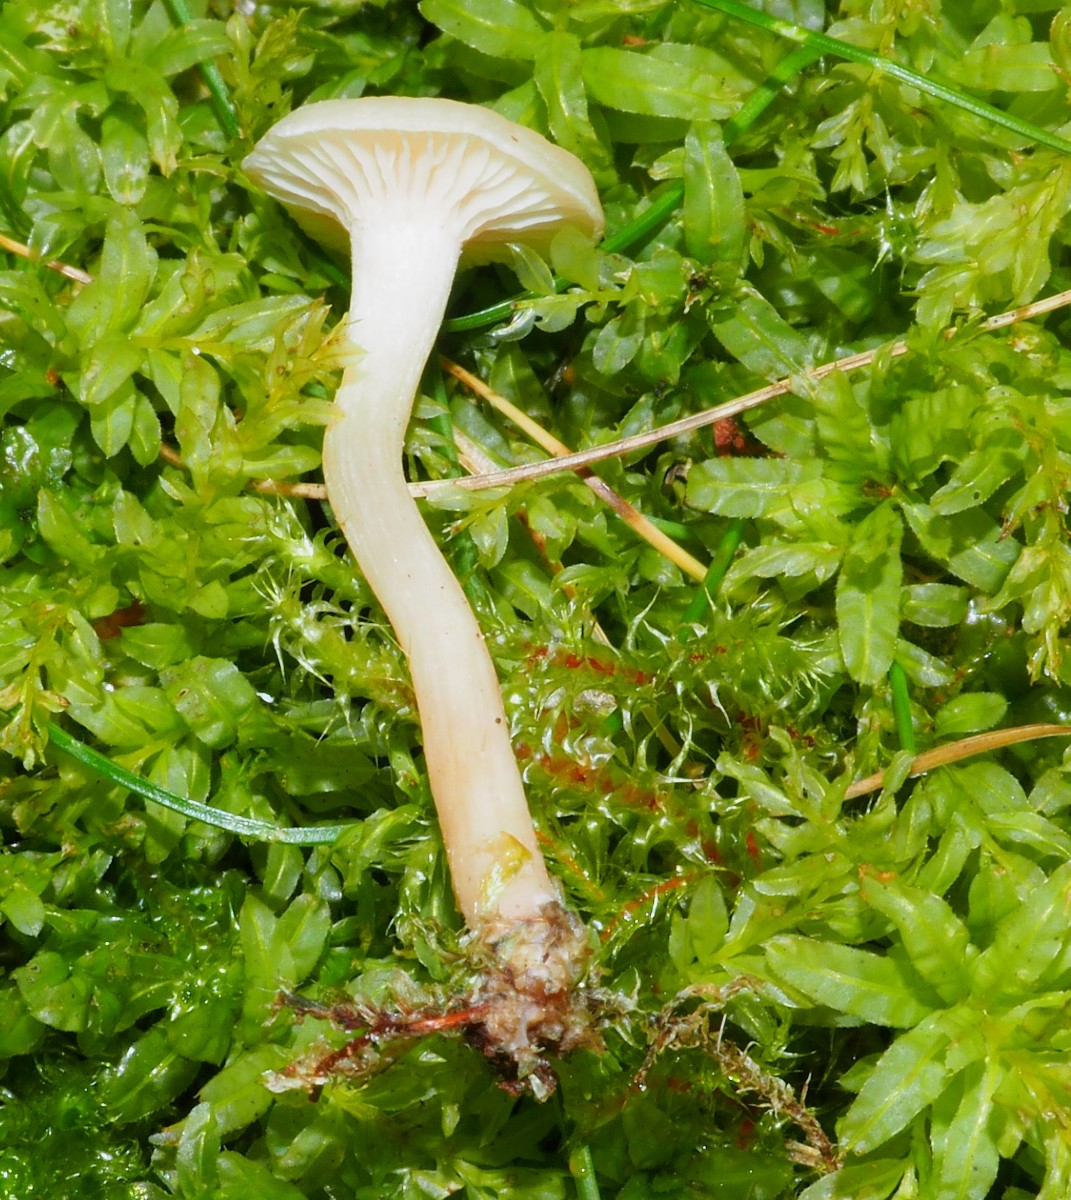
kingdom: Fungi
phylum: Basidiomycota
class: Agaricomycetes
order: Agaricales
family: Hygrophoraceae
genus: Cuphophyllus
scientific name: Cuphophyllus russocoriaceus
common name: ruslæder-vokshat
